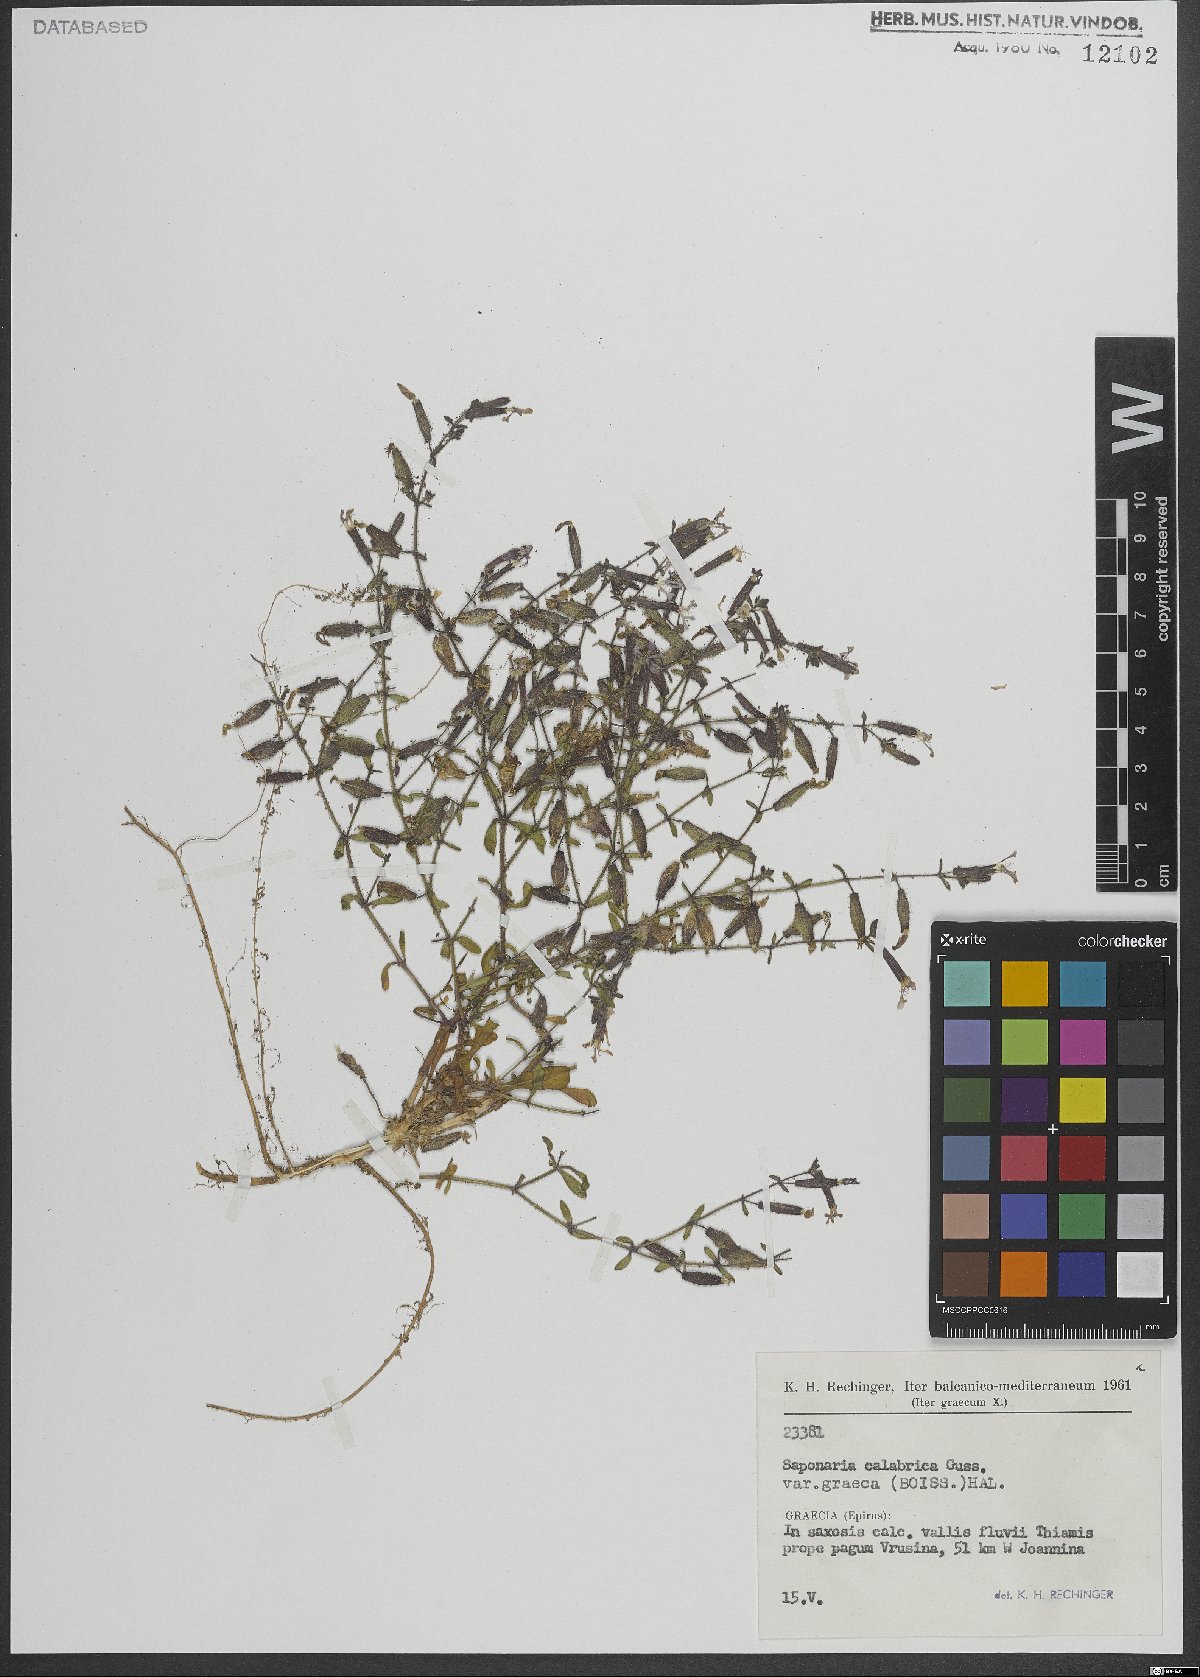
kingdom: Plantae
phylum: Tracheophyta
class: Magnoliopsida
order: Caryophyllales
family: Caryophyllaceae
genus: Saponaria
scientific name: Saponaria calabrica
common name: Adriatic soapwort
